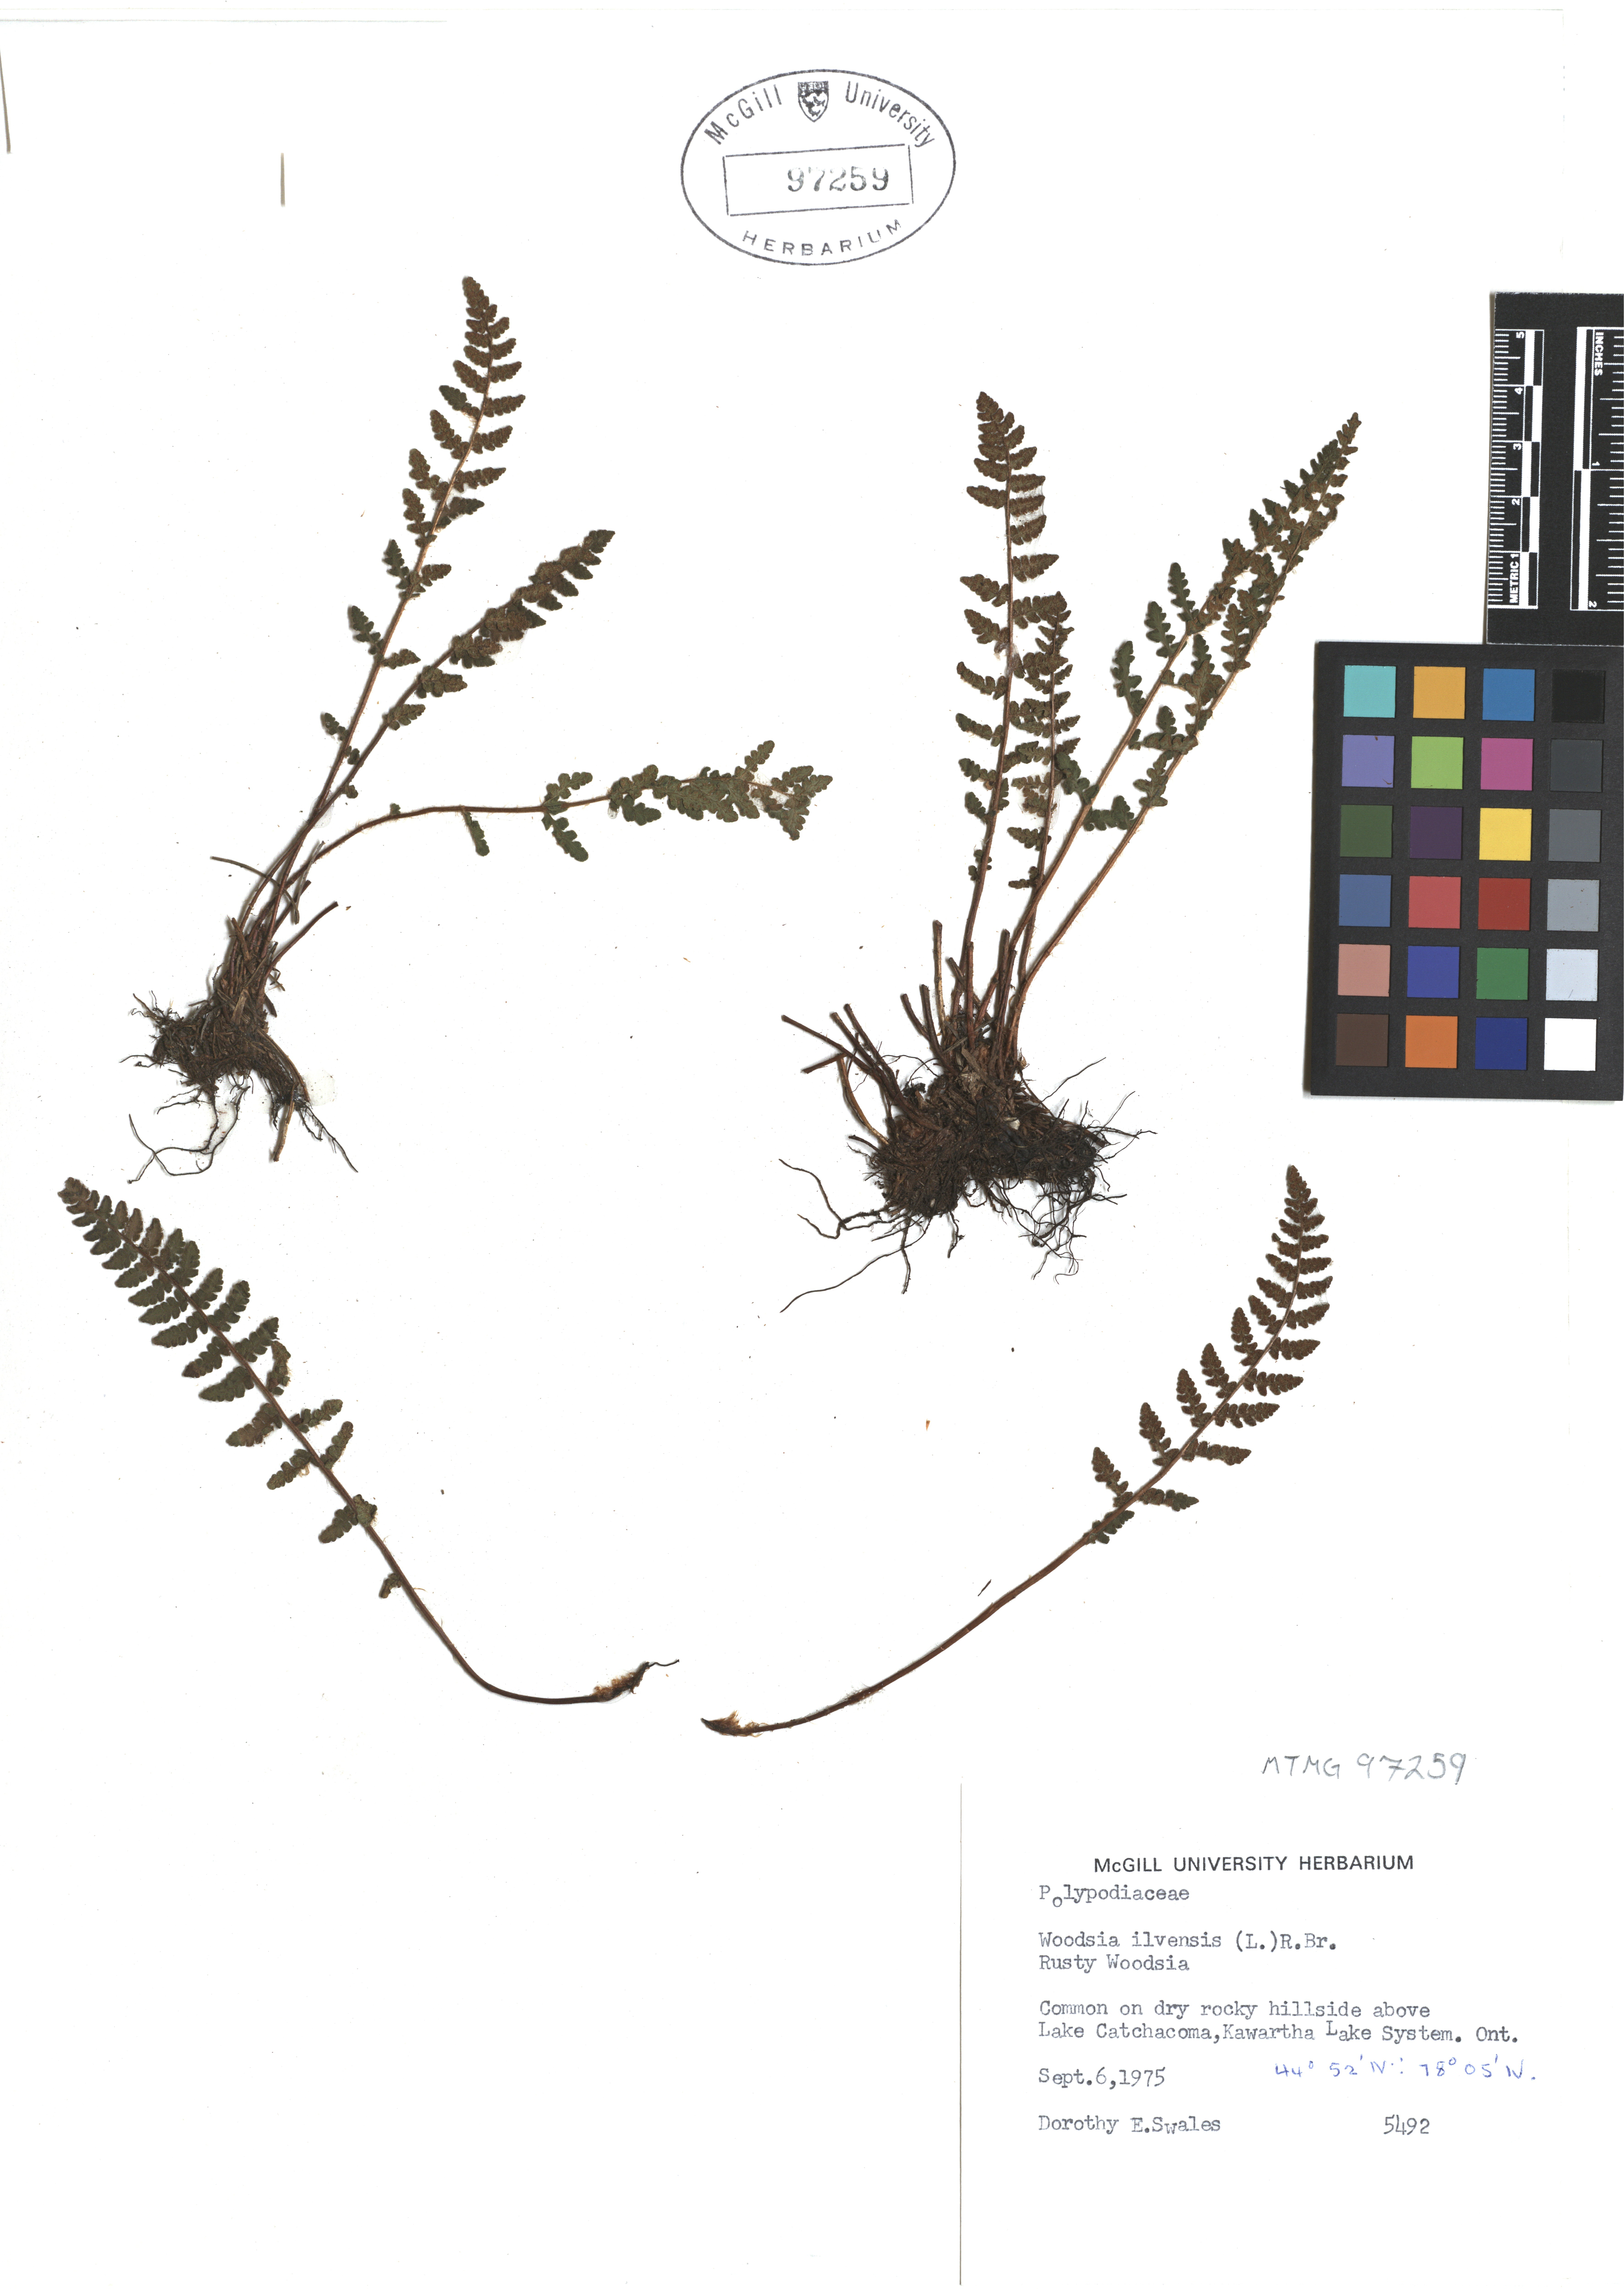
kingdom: Plantae
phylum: Tracheophyta
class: Polypodiopsida
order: Polypodiales
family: Woodsiaceae
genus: Woodsia
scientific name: Woodsia ilvensis
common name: Fragrant woodsia
